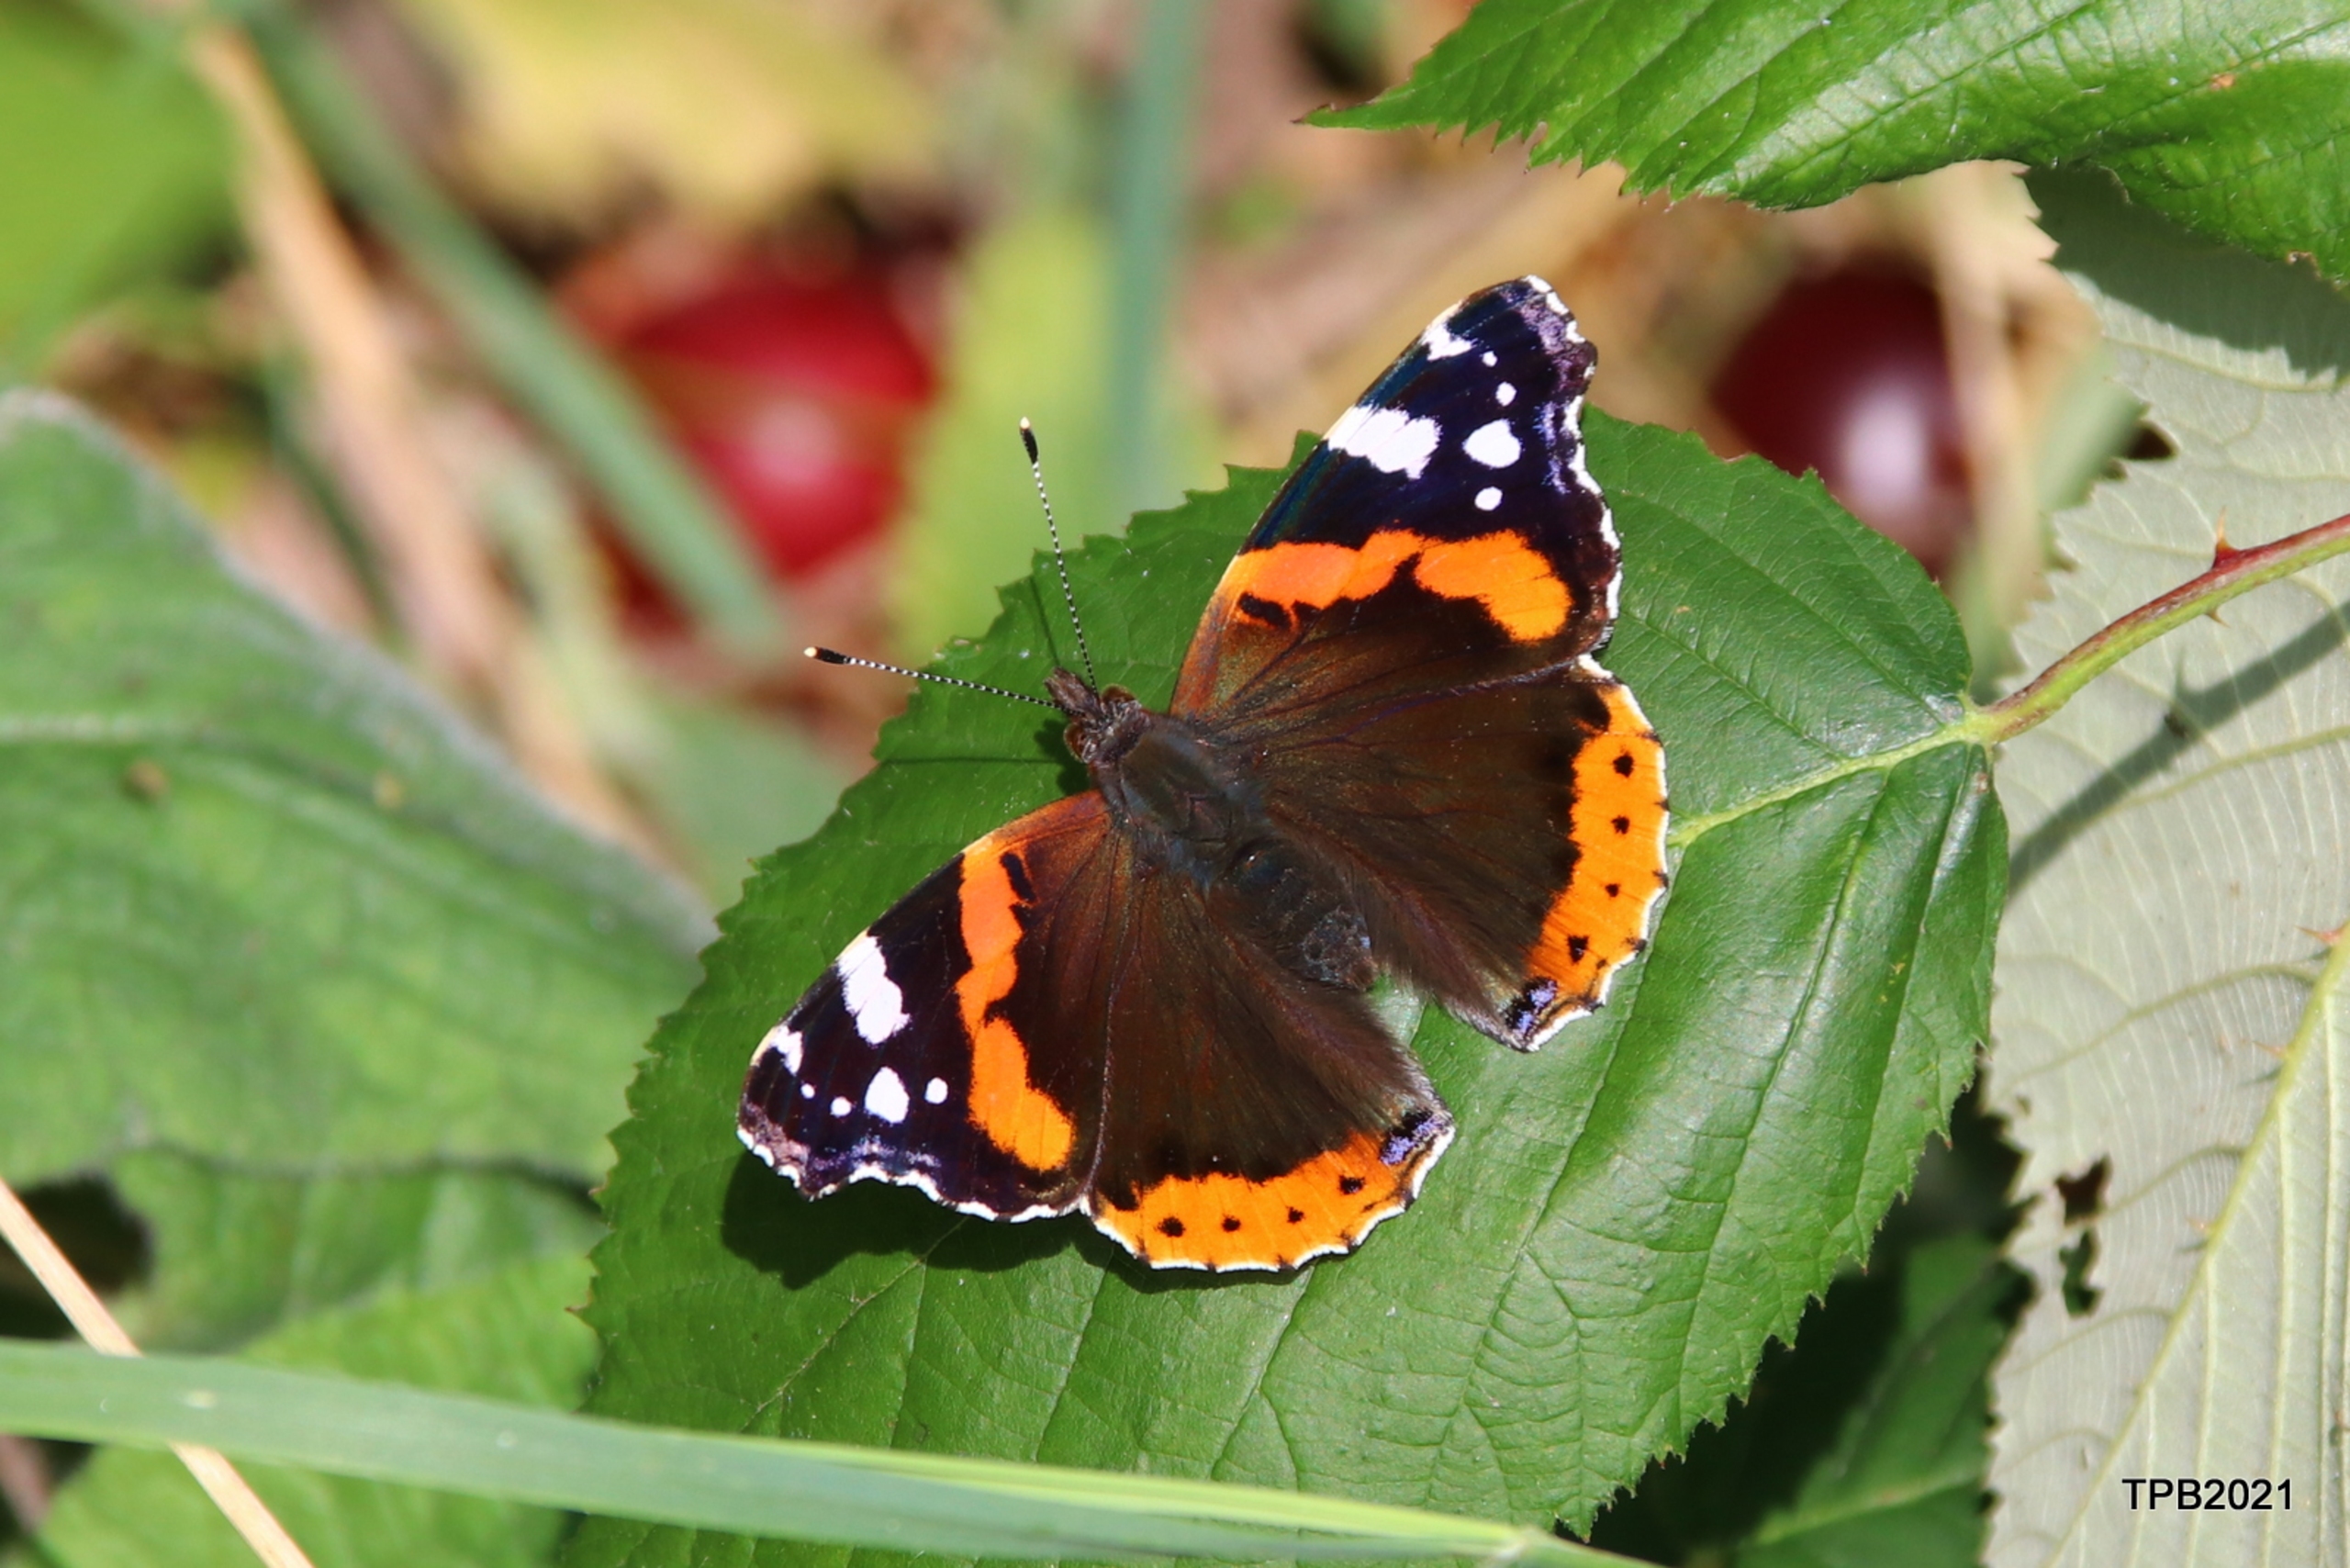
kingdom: Animalia
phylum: Arthropoda
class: Insecta
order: Lepidoptera
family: Nymphalidae
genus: Vanessa
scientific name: Vanessa atalanta
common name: Admiral
